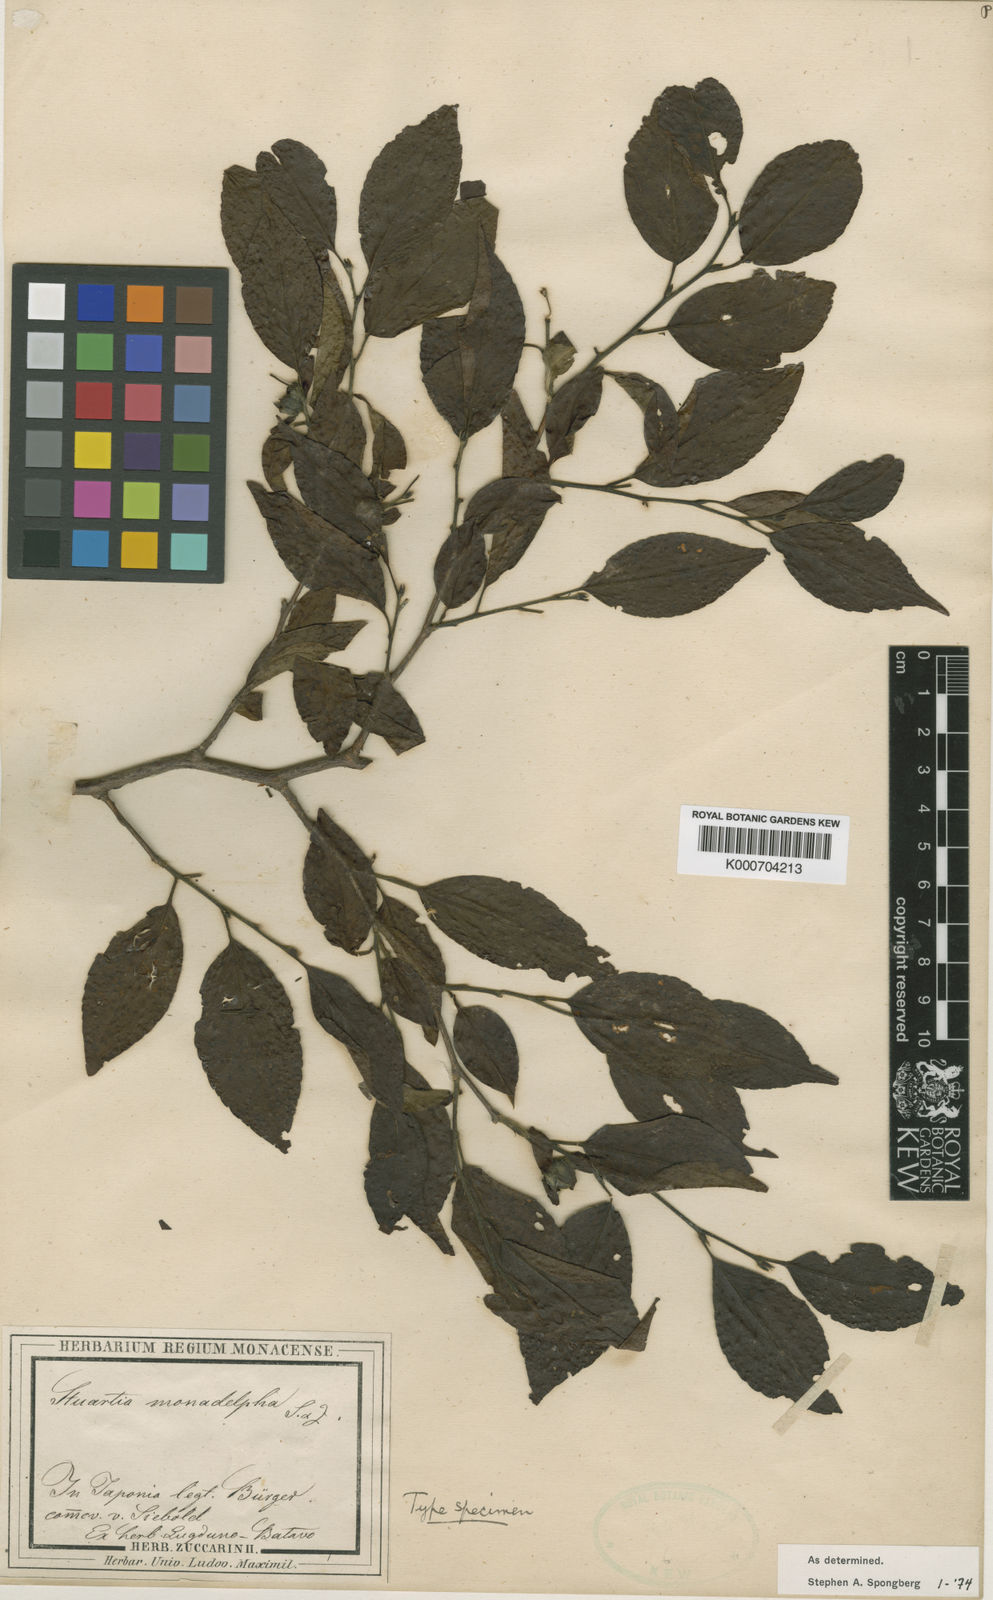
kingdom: Plantae
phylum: Tracheophyta
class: Magnoliopsida
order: Ericales
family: Theaceae
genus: Stewartia
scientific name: Stewartia monadelpha
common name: Tall stewartia
